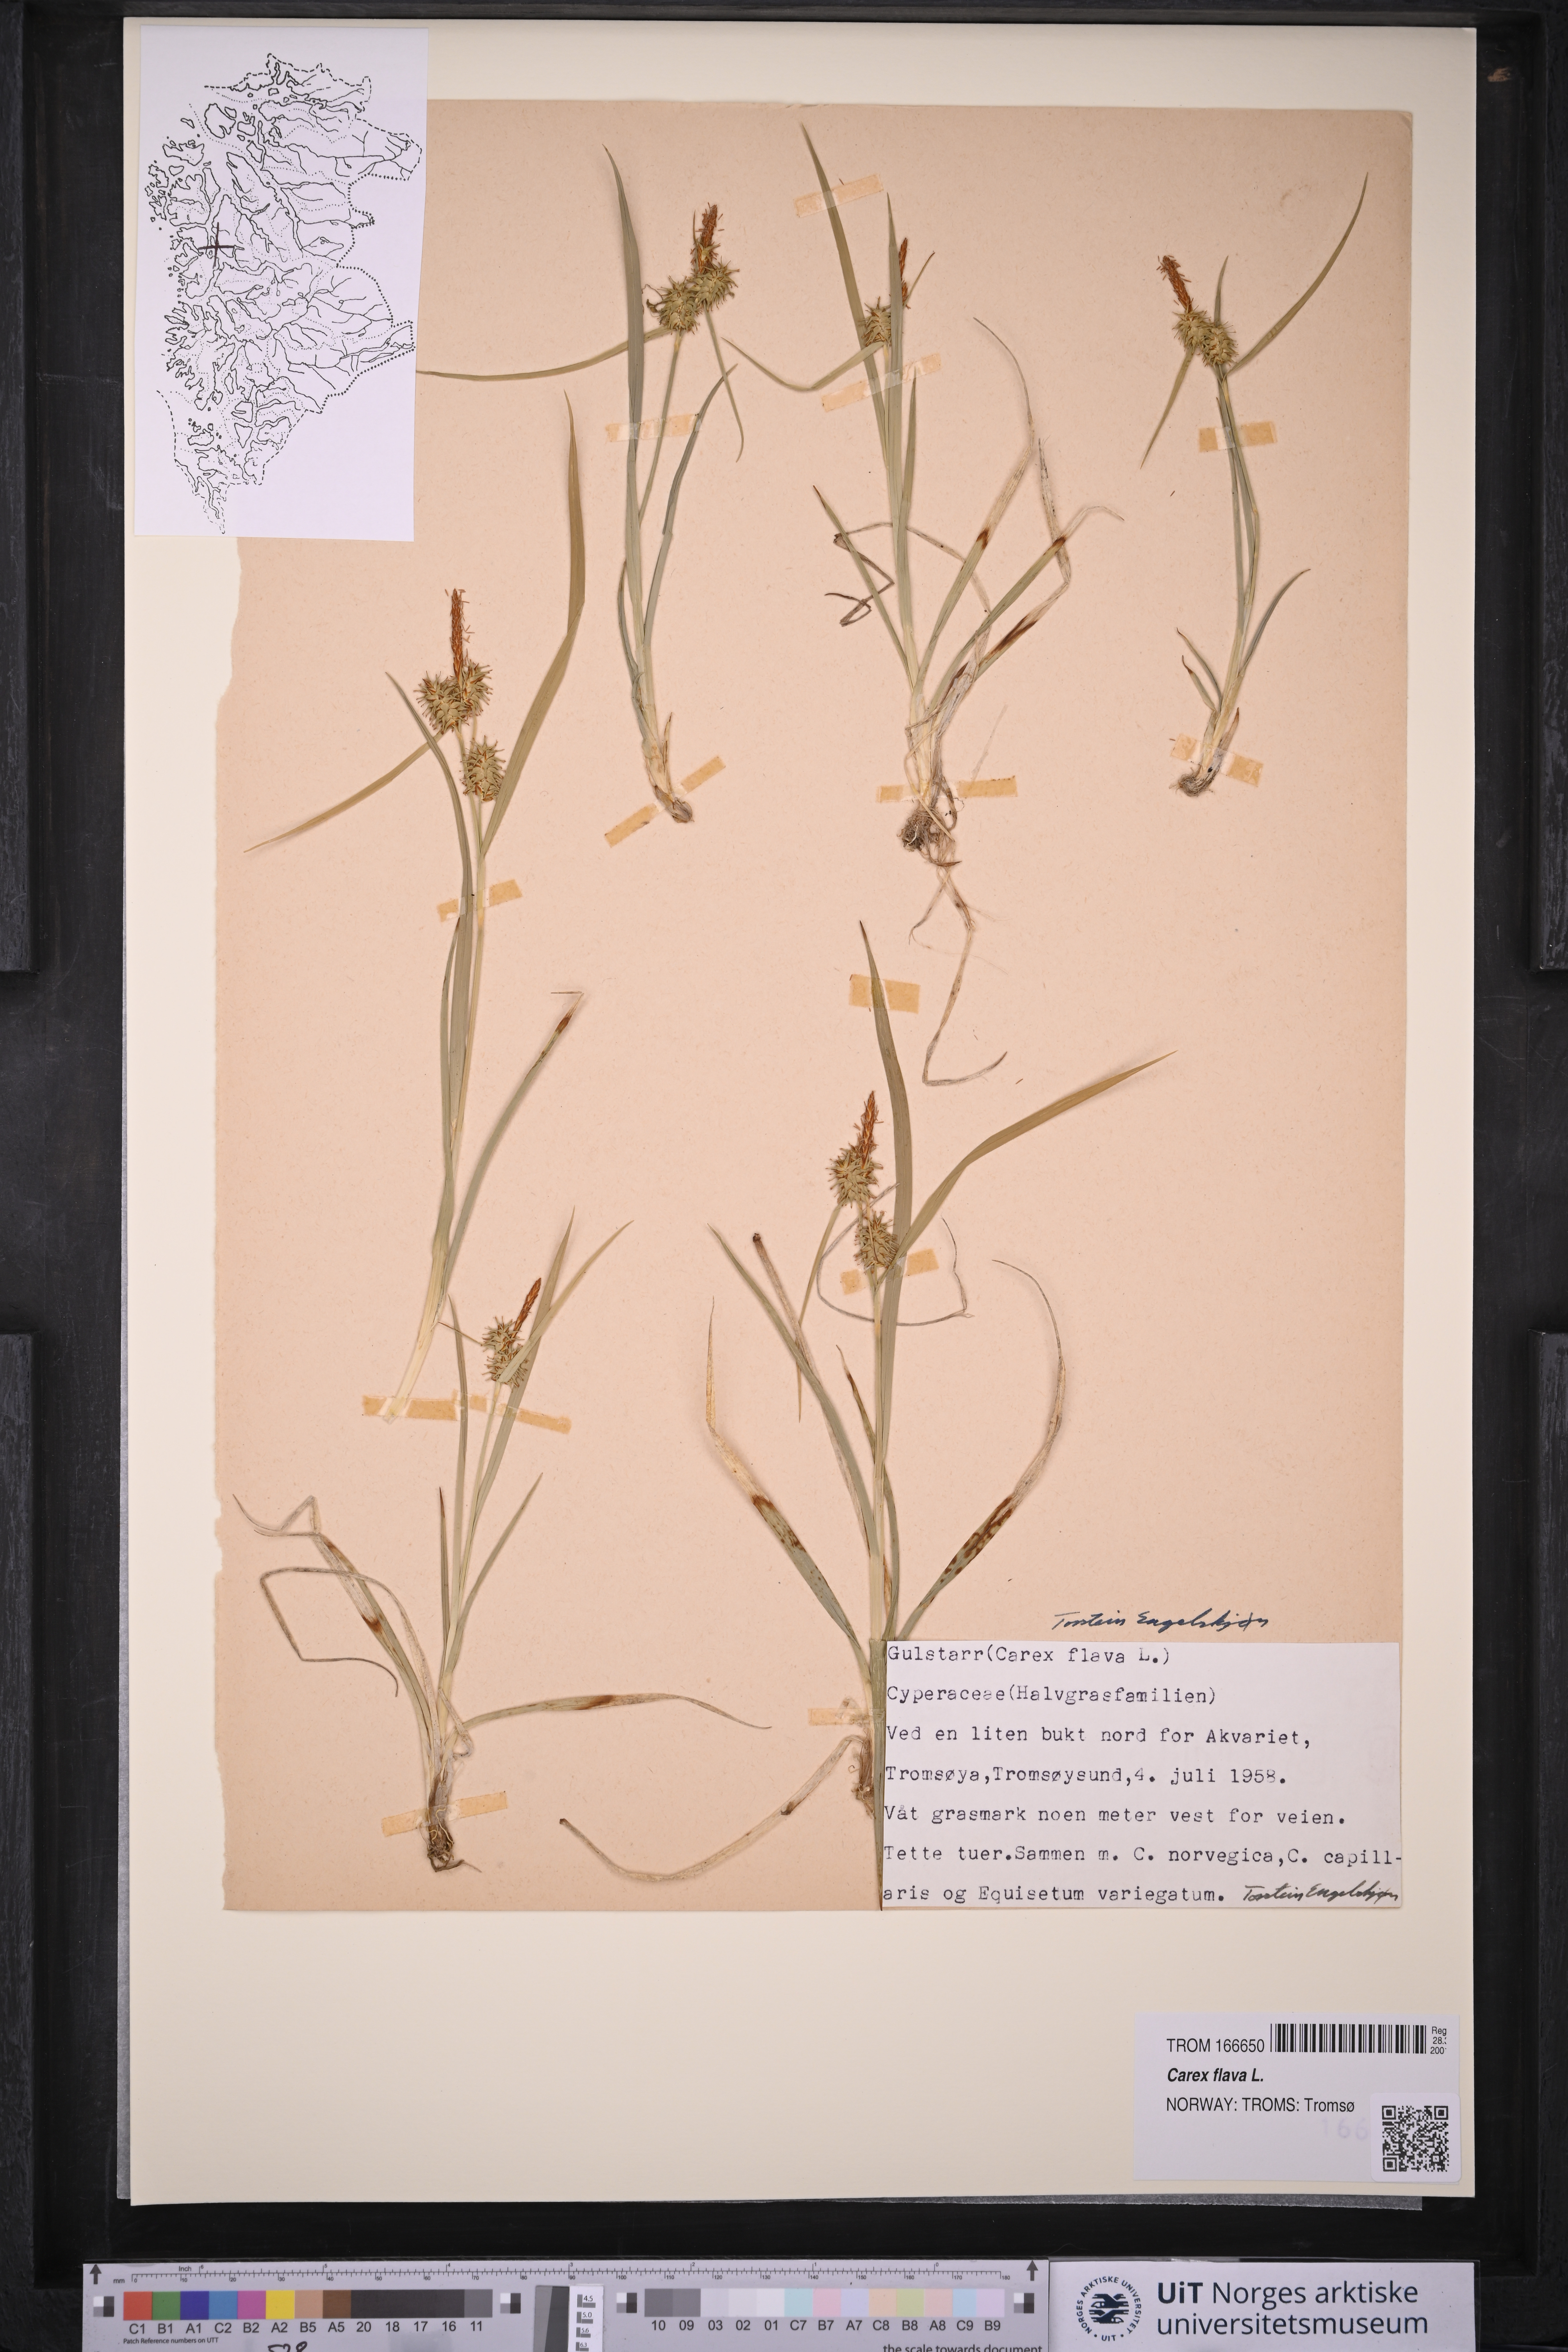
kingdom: Plantae
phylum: Tracheophyta
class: Liliopsida
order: Poales
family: Cyperaceae
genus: Carex
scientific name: Carex flava
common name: Large yellow-sedge
